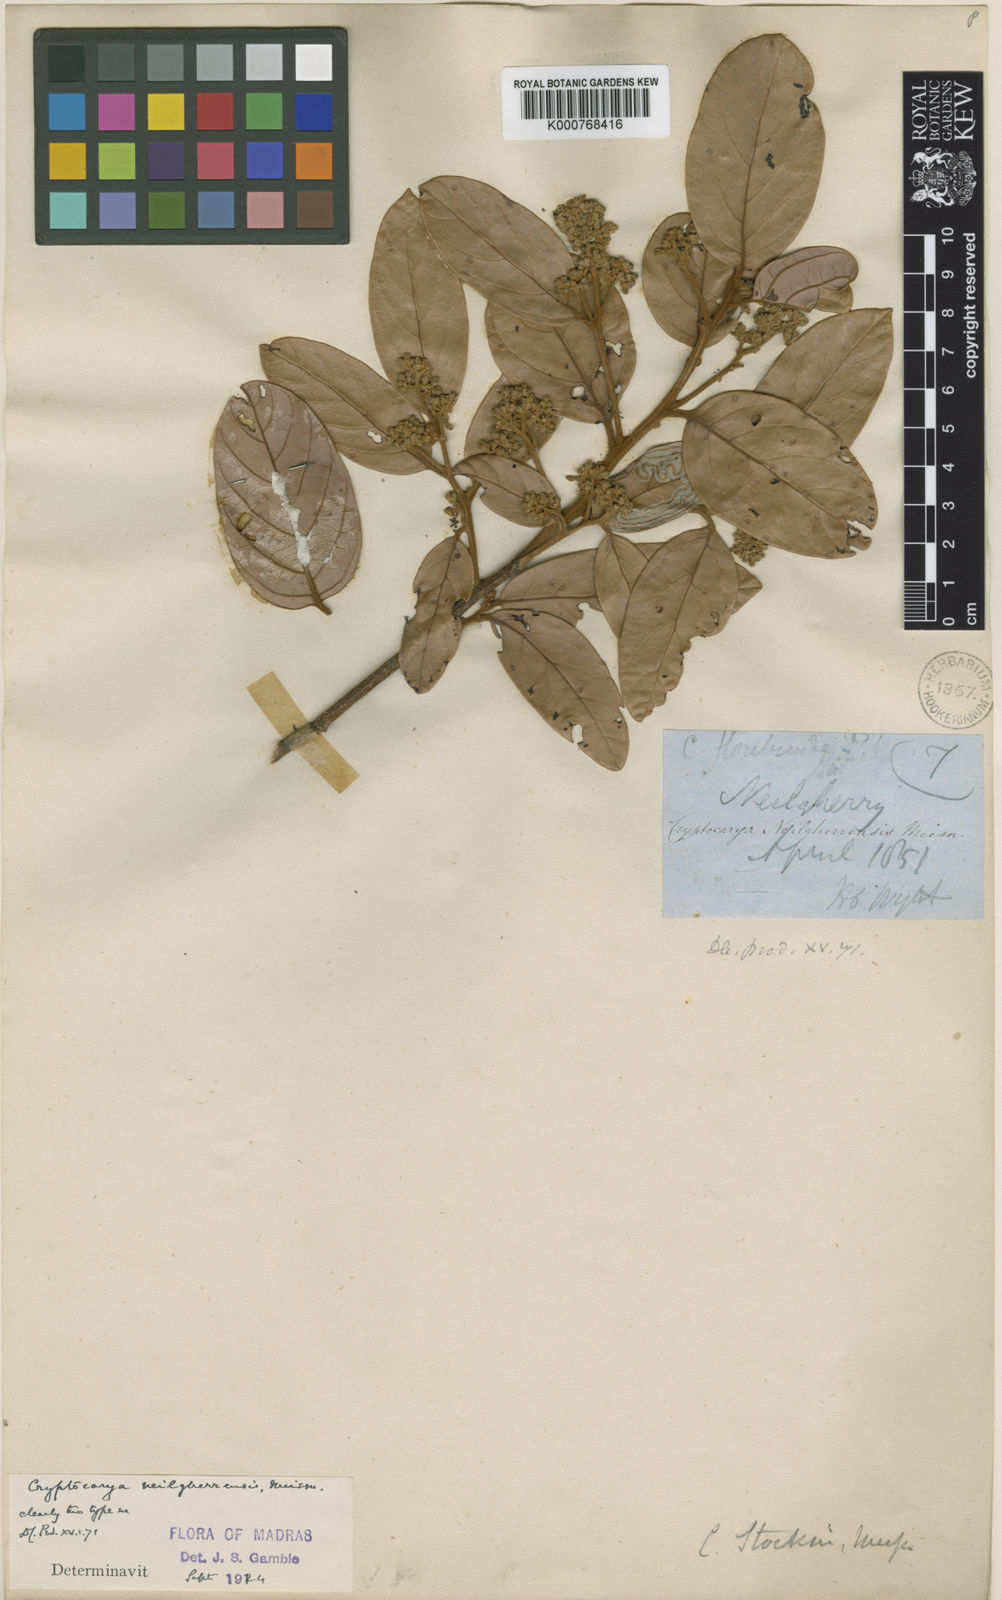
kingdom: Plantae
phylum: Tracheophyta
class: Magnoliopsida
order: Laurales
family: Lauraceae
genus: Litsea
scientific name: Litsea stocksii
